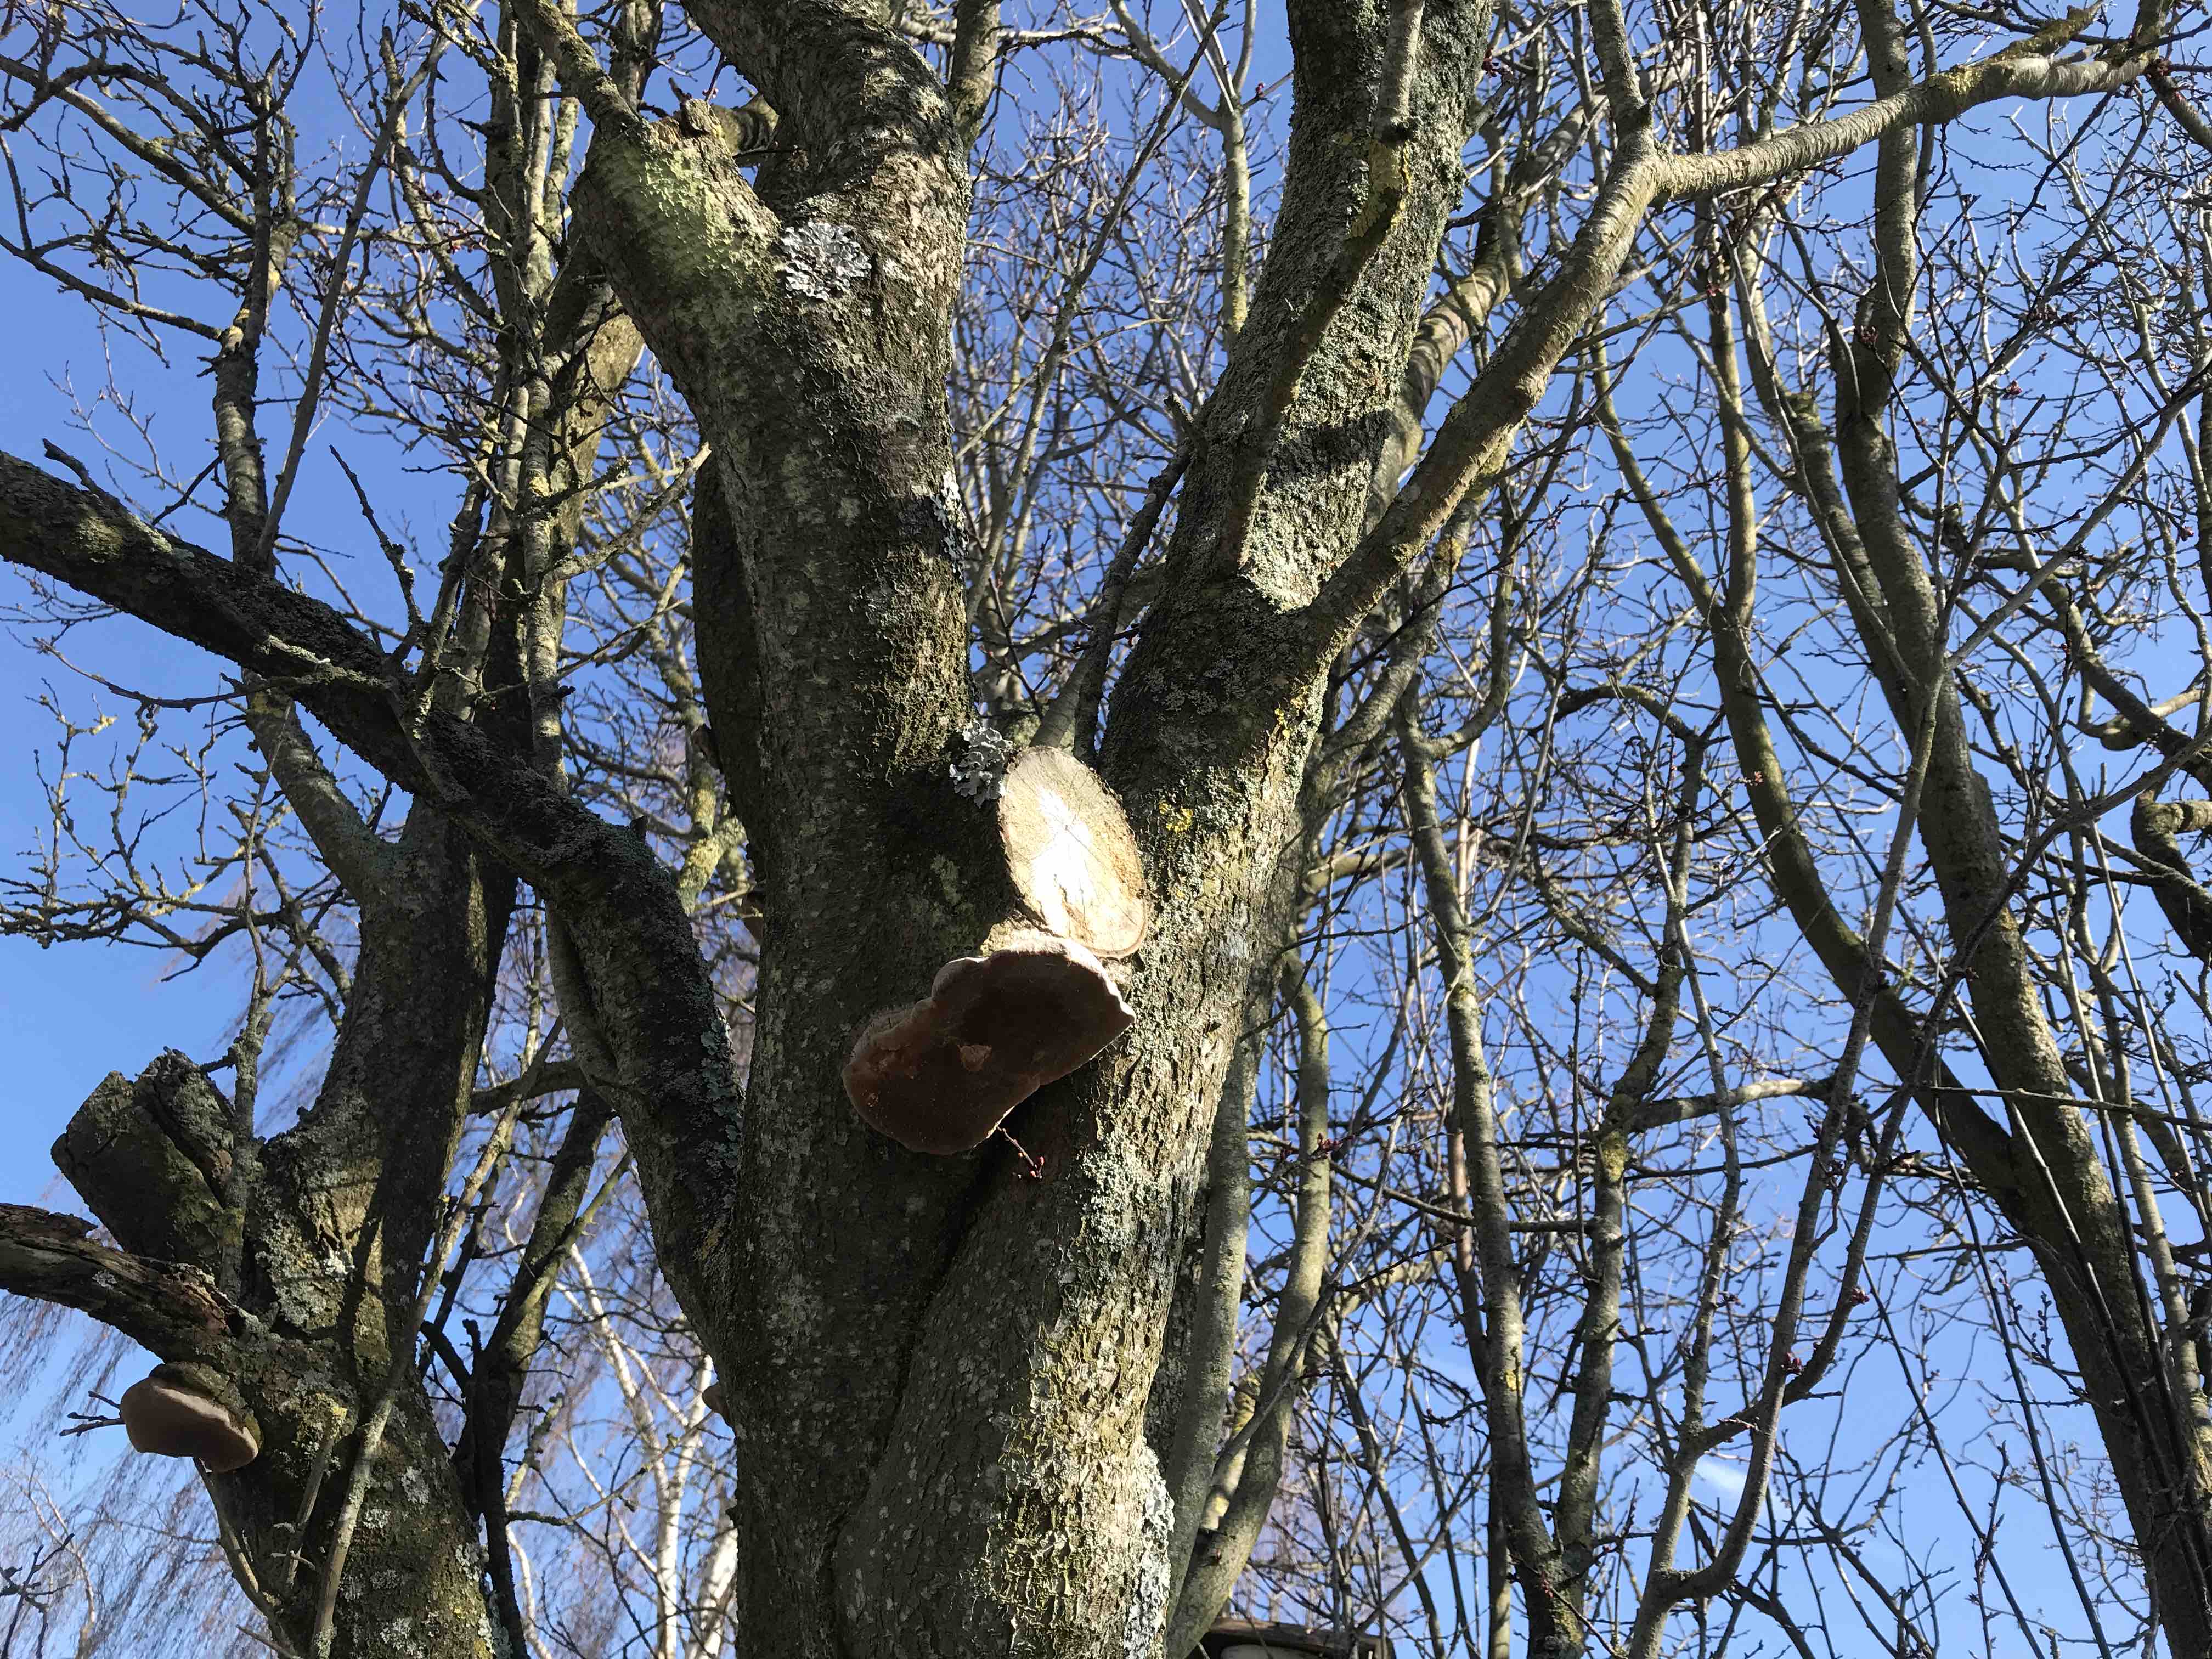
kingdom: Fungi
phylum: Basidiomycota
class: Agaricomycetes
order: Hymenochaetales
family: Hymenochaetaceae
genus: Phellinus
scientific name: Phellinus pomaceus
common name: blomme-ildporesvamp
